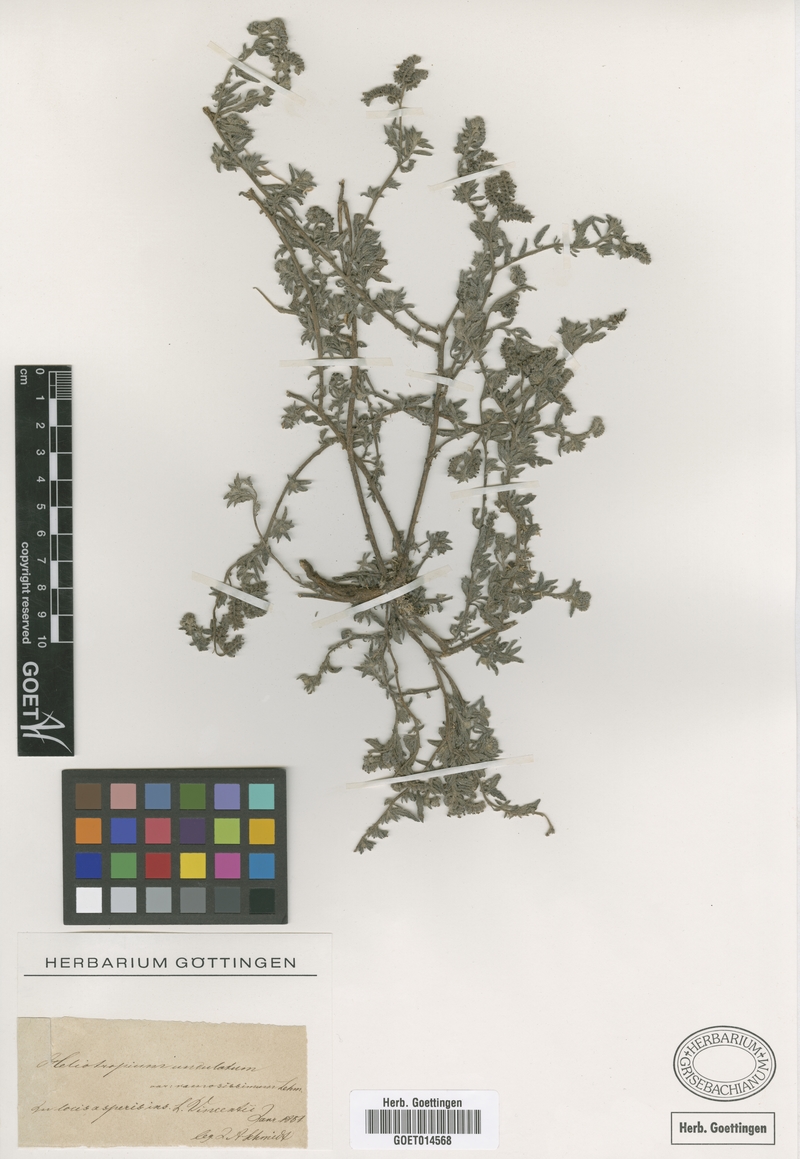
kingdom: Plantae
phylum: Tracheophyta
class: Magnoliopsida
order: Boraginales
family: Heliotropiaceae
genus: Heliotropium
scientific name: Heliotropium ramosissimum
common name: Wavy heliotrope
